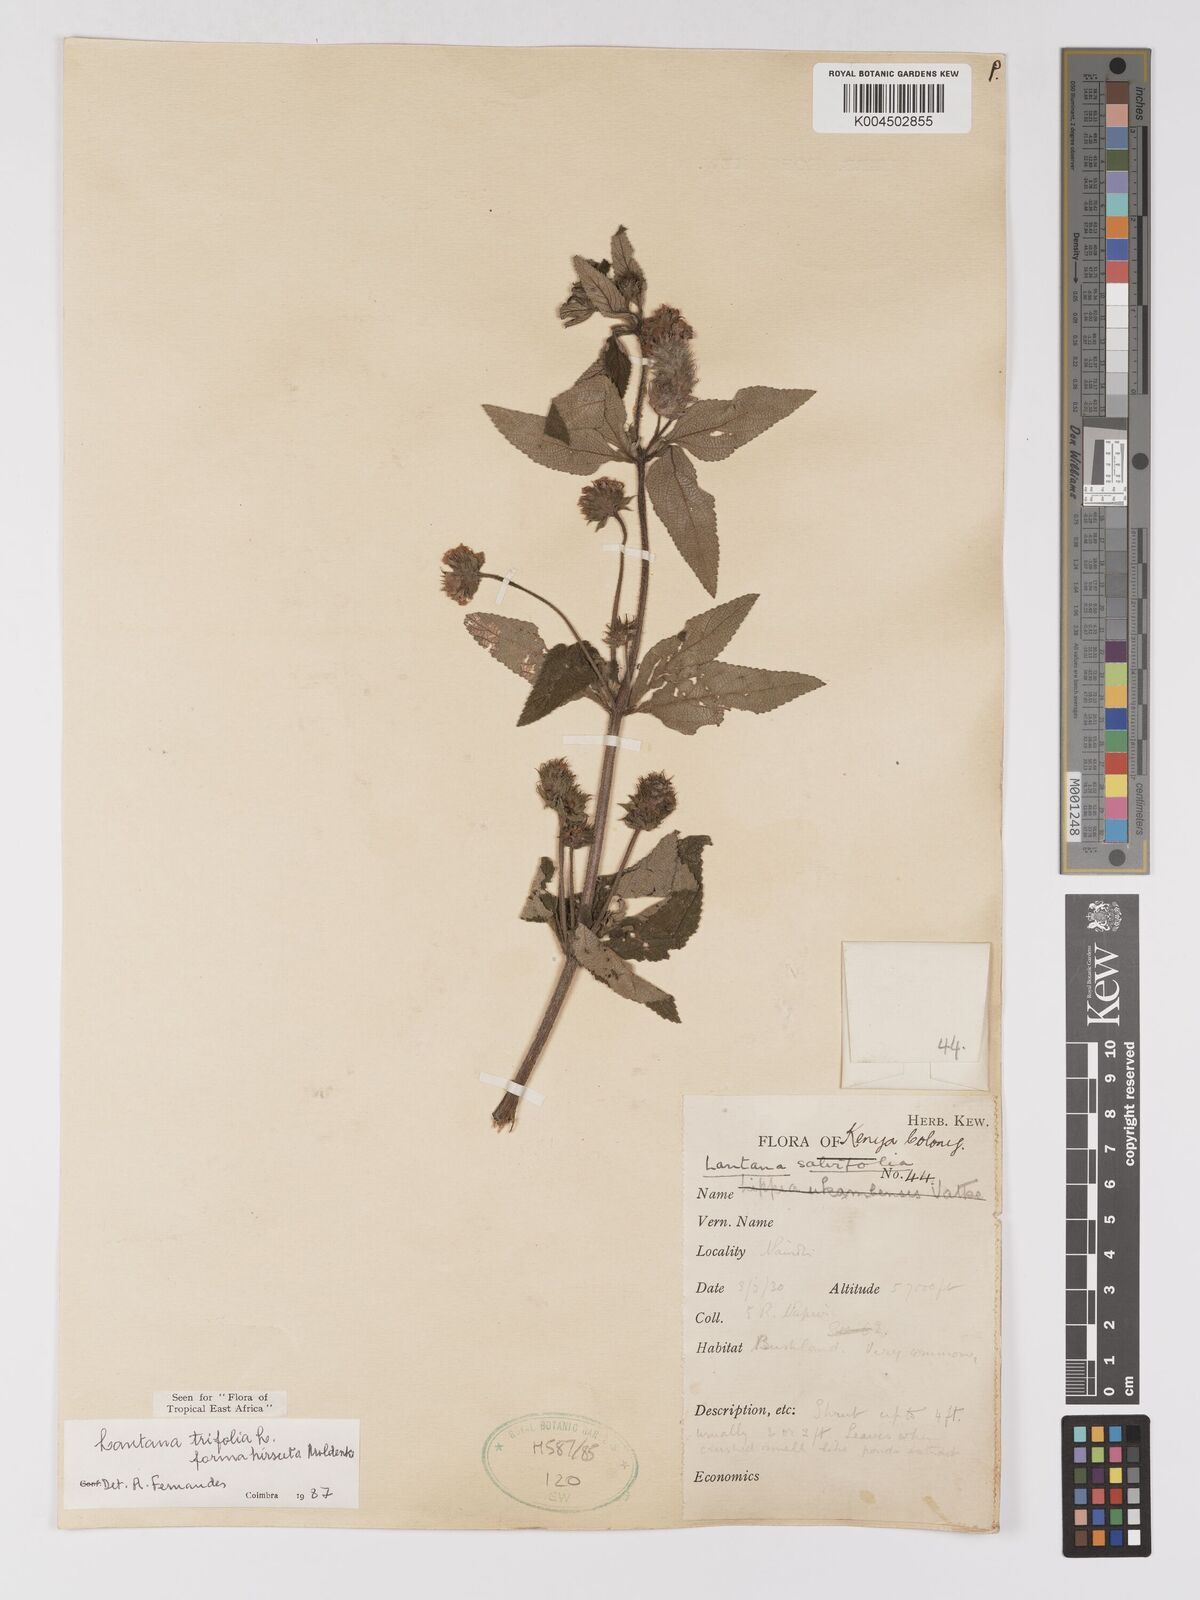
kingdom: Plantae
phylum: Tracheophyta
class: Magnoliopsida
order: Lamiales
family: Verbenaceae
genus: Lantana
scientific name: Lantana trifolia
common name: Sweet-sage
